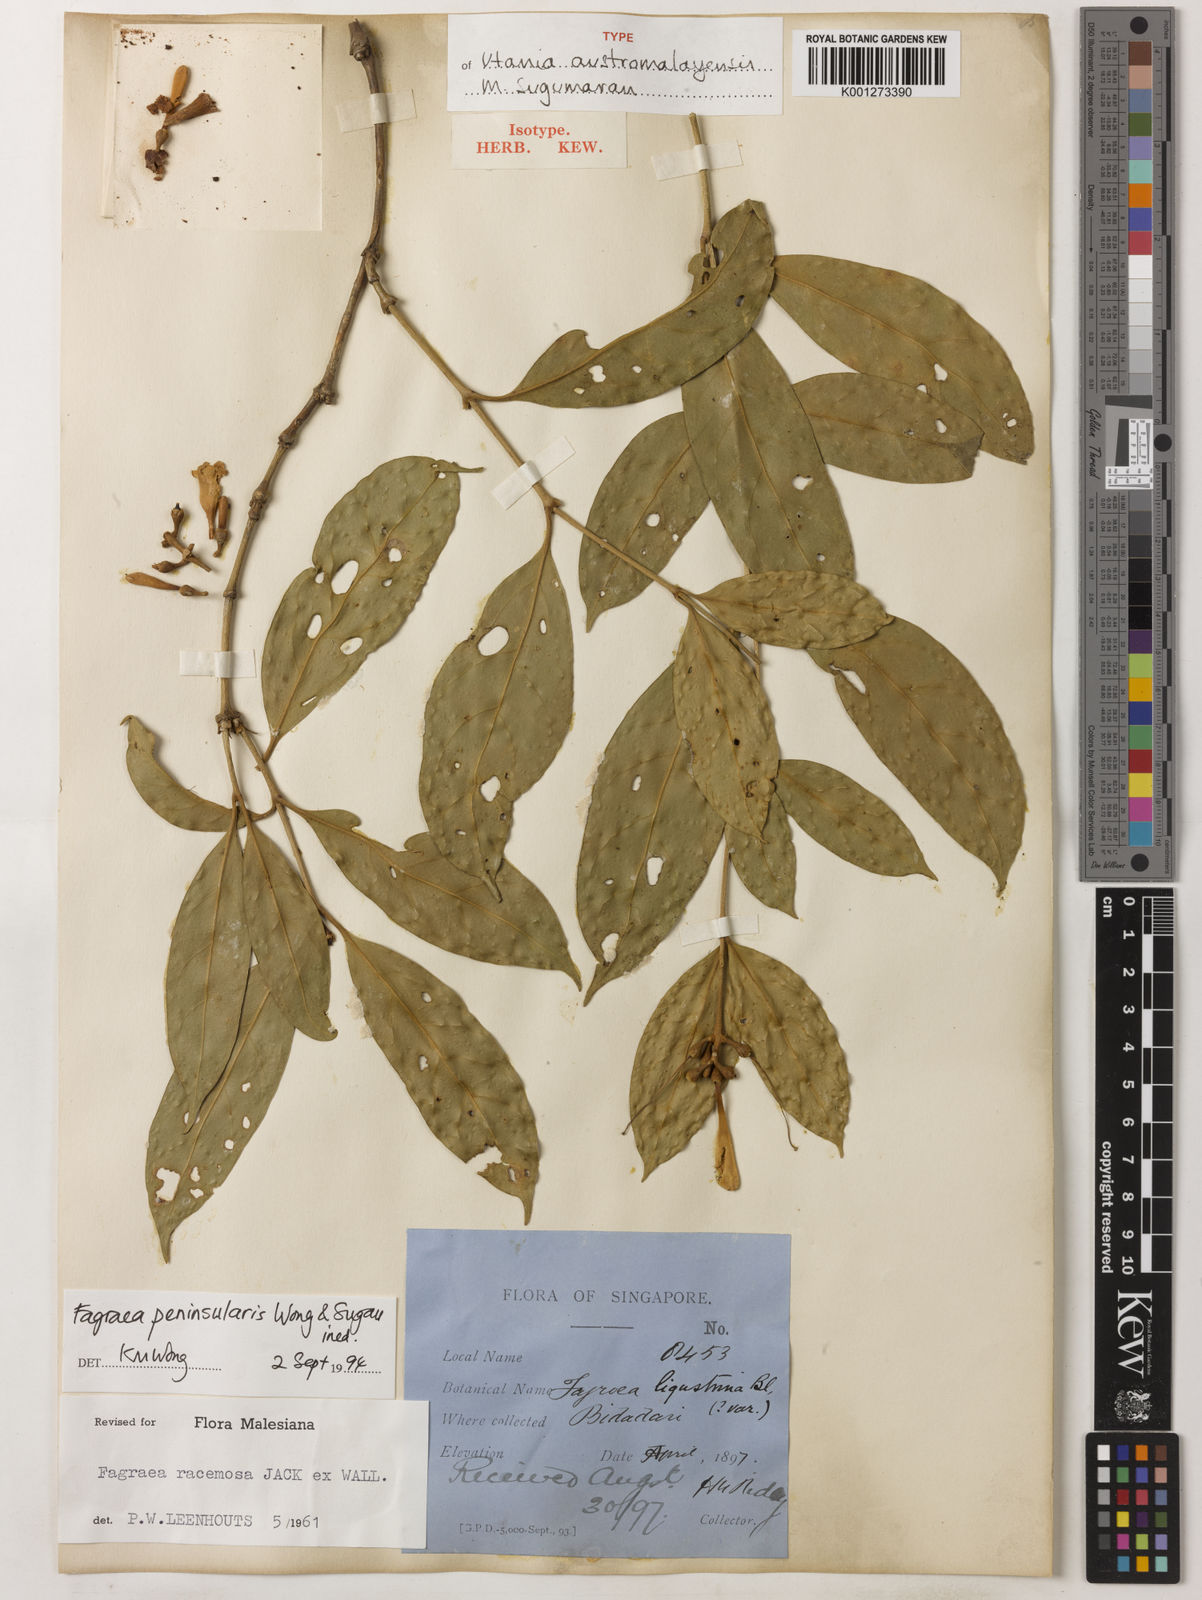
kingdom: Plantae
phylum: Tracheophyta
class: Magnoliopsida
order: Gentianales
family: Gentianaceae
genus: Utania
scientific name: Utania austromalayensis
